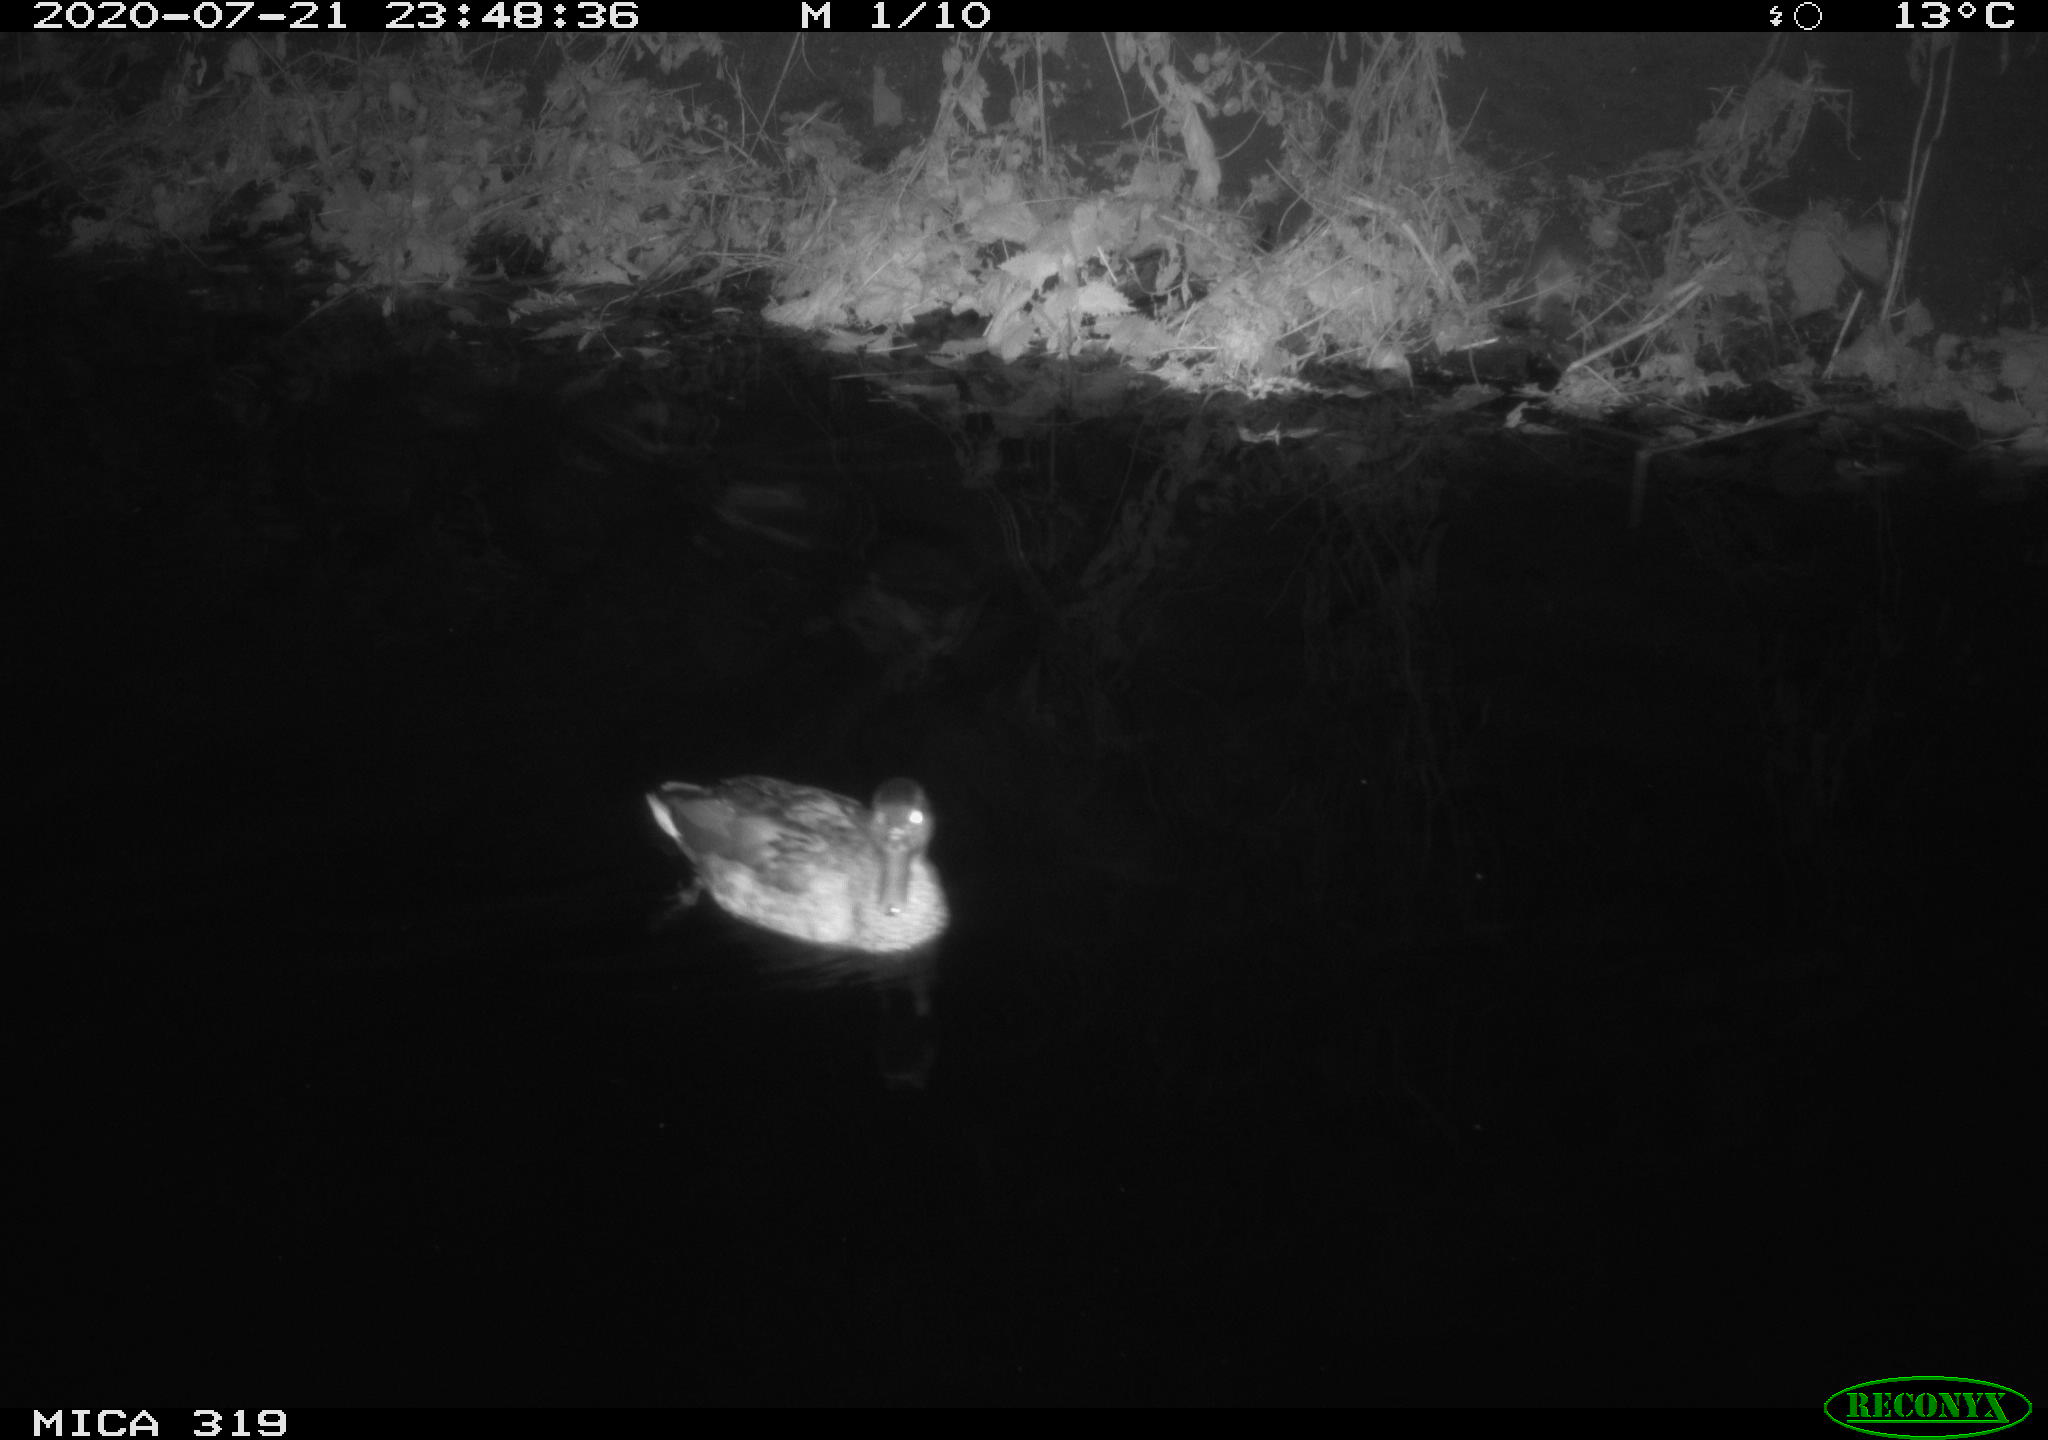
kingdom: Animalia
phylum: Chordata
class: Aves
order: Anseriformes
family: Anatidae
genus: Anas
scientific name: Anas platyrhynchos
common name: Mallard
